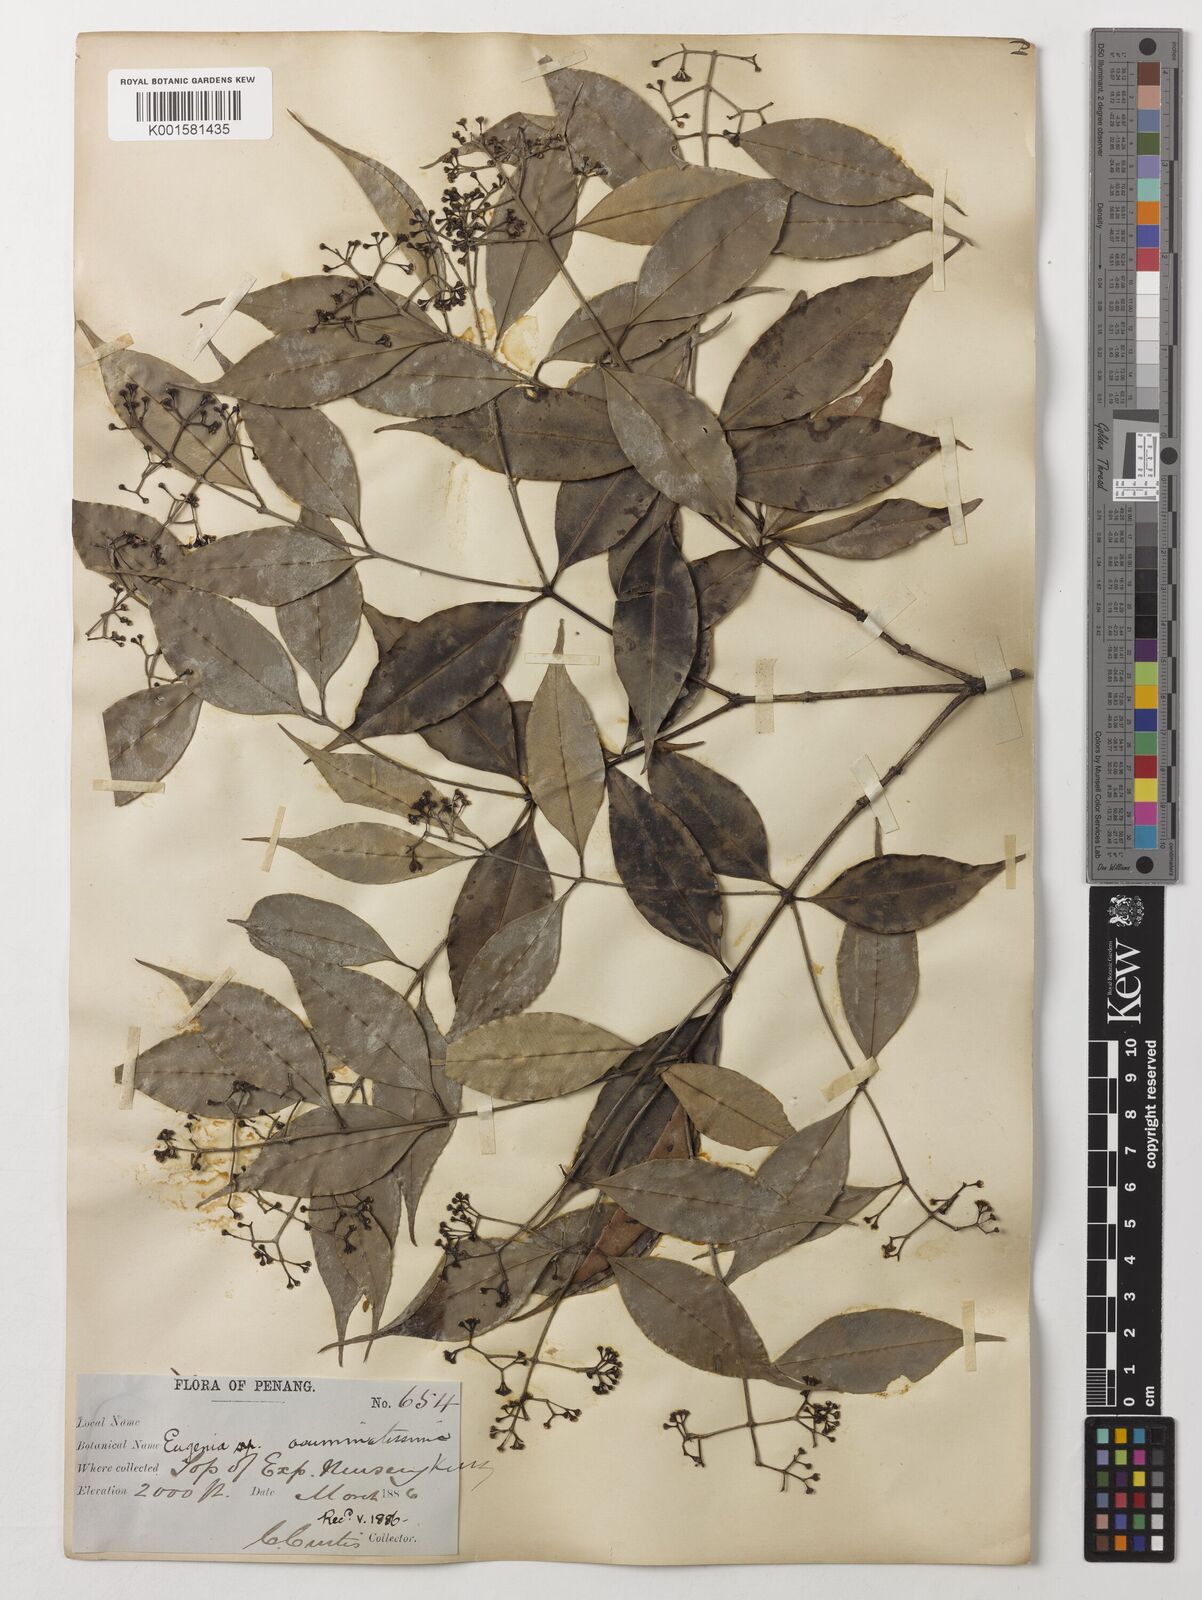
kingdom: Plantae
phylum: Tracheophyta
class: Magnoliopsida
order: Myrtales
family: Myrtaceae
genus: Eugenia
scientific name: Eugenia biflora
